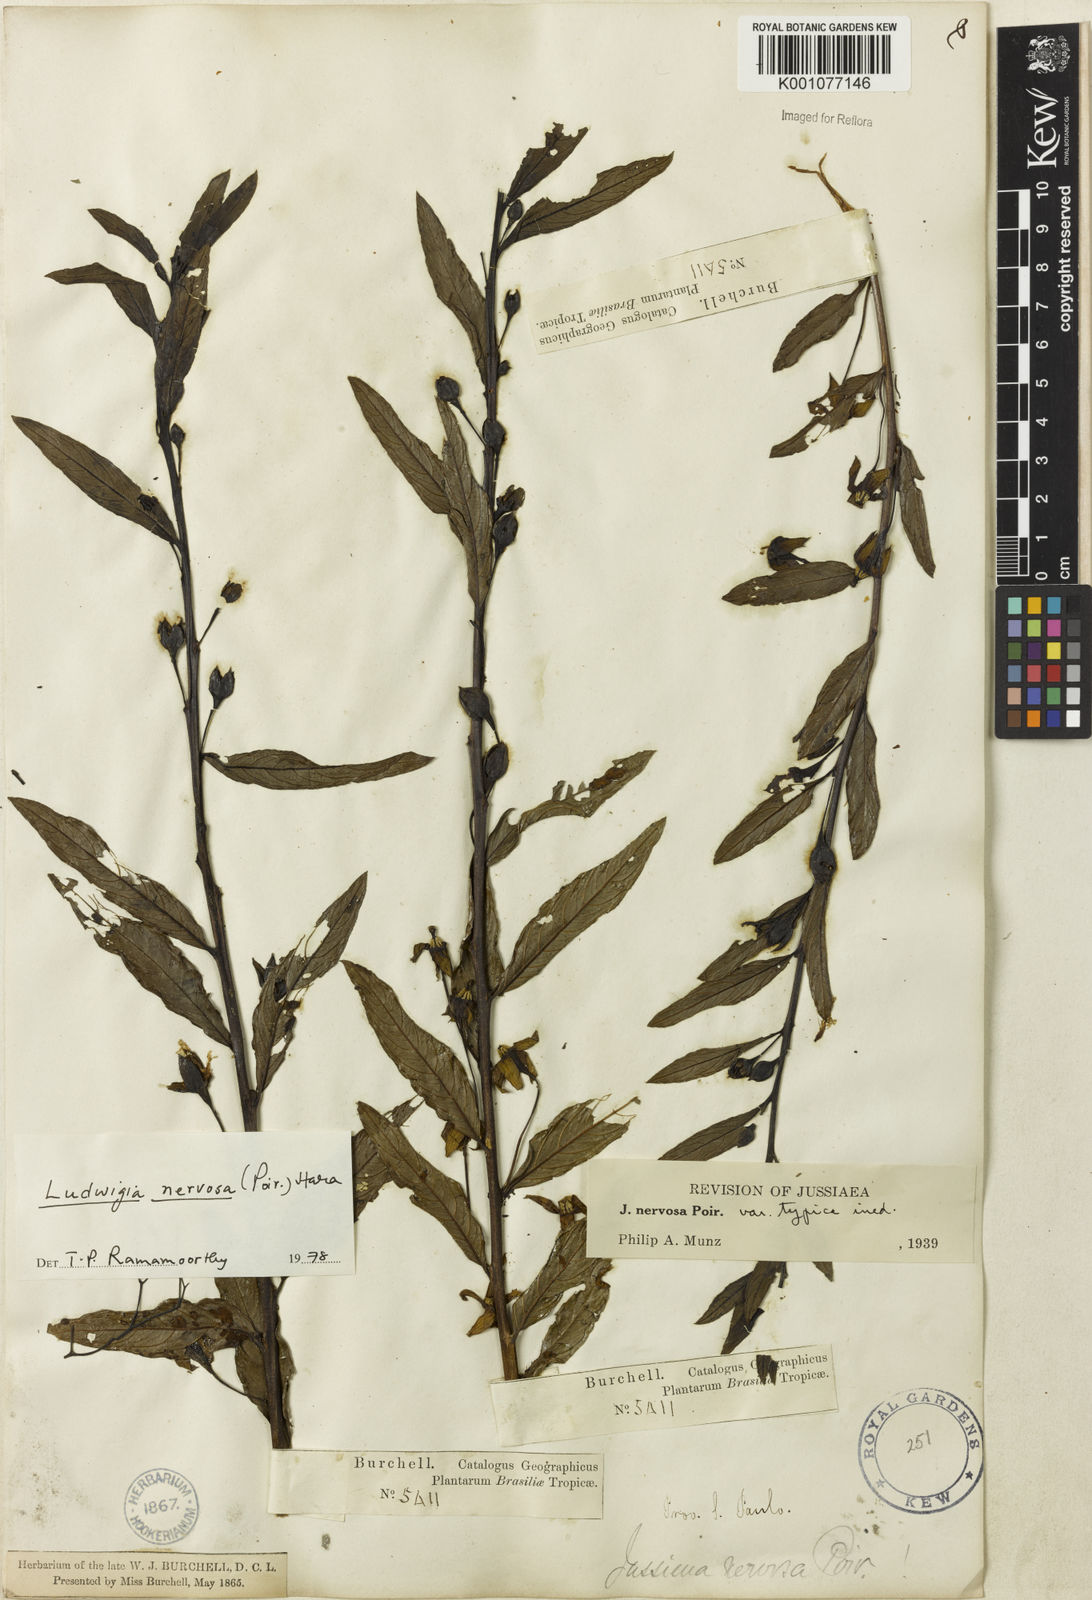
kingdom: Plantae
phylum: Tracheophyta
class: Magnoliopsida
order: Myrtales
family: Onagraceae
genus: Ludwigia
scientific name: Ludwigia nervosa
